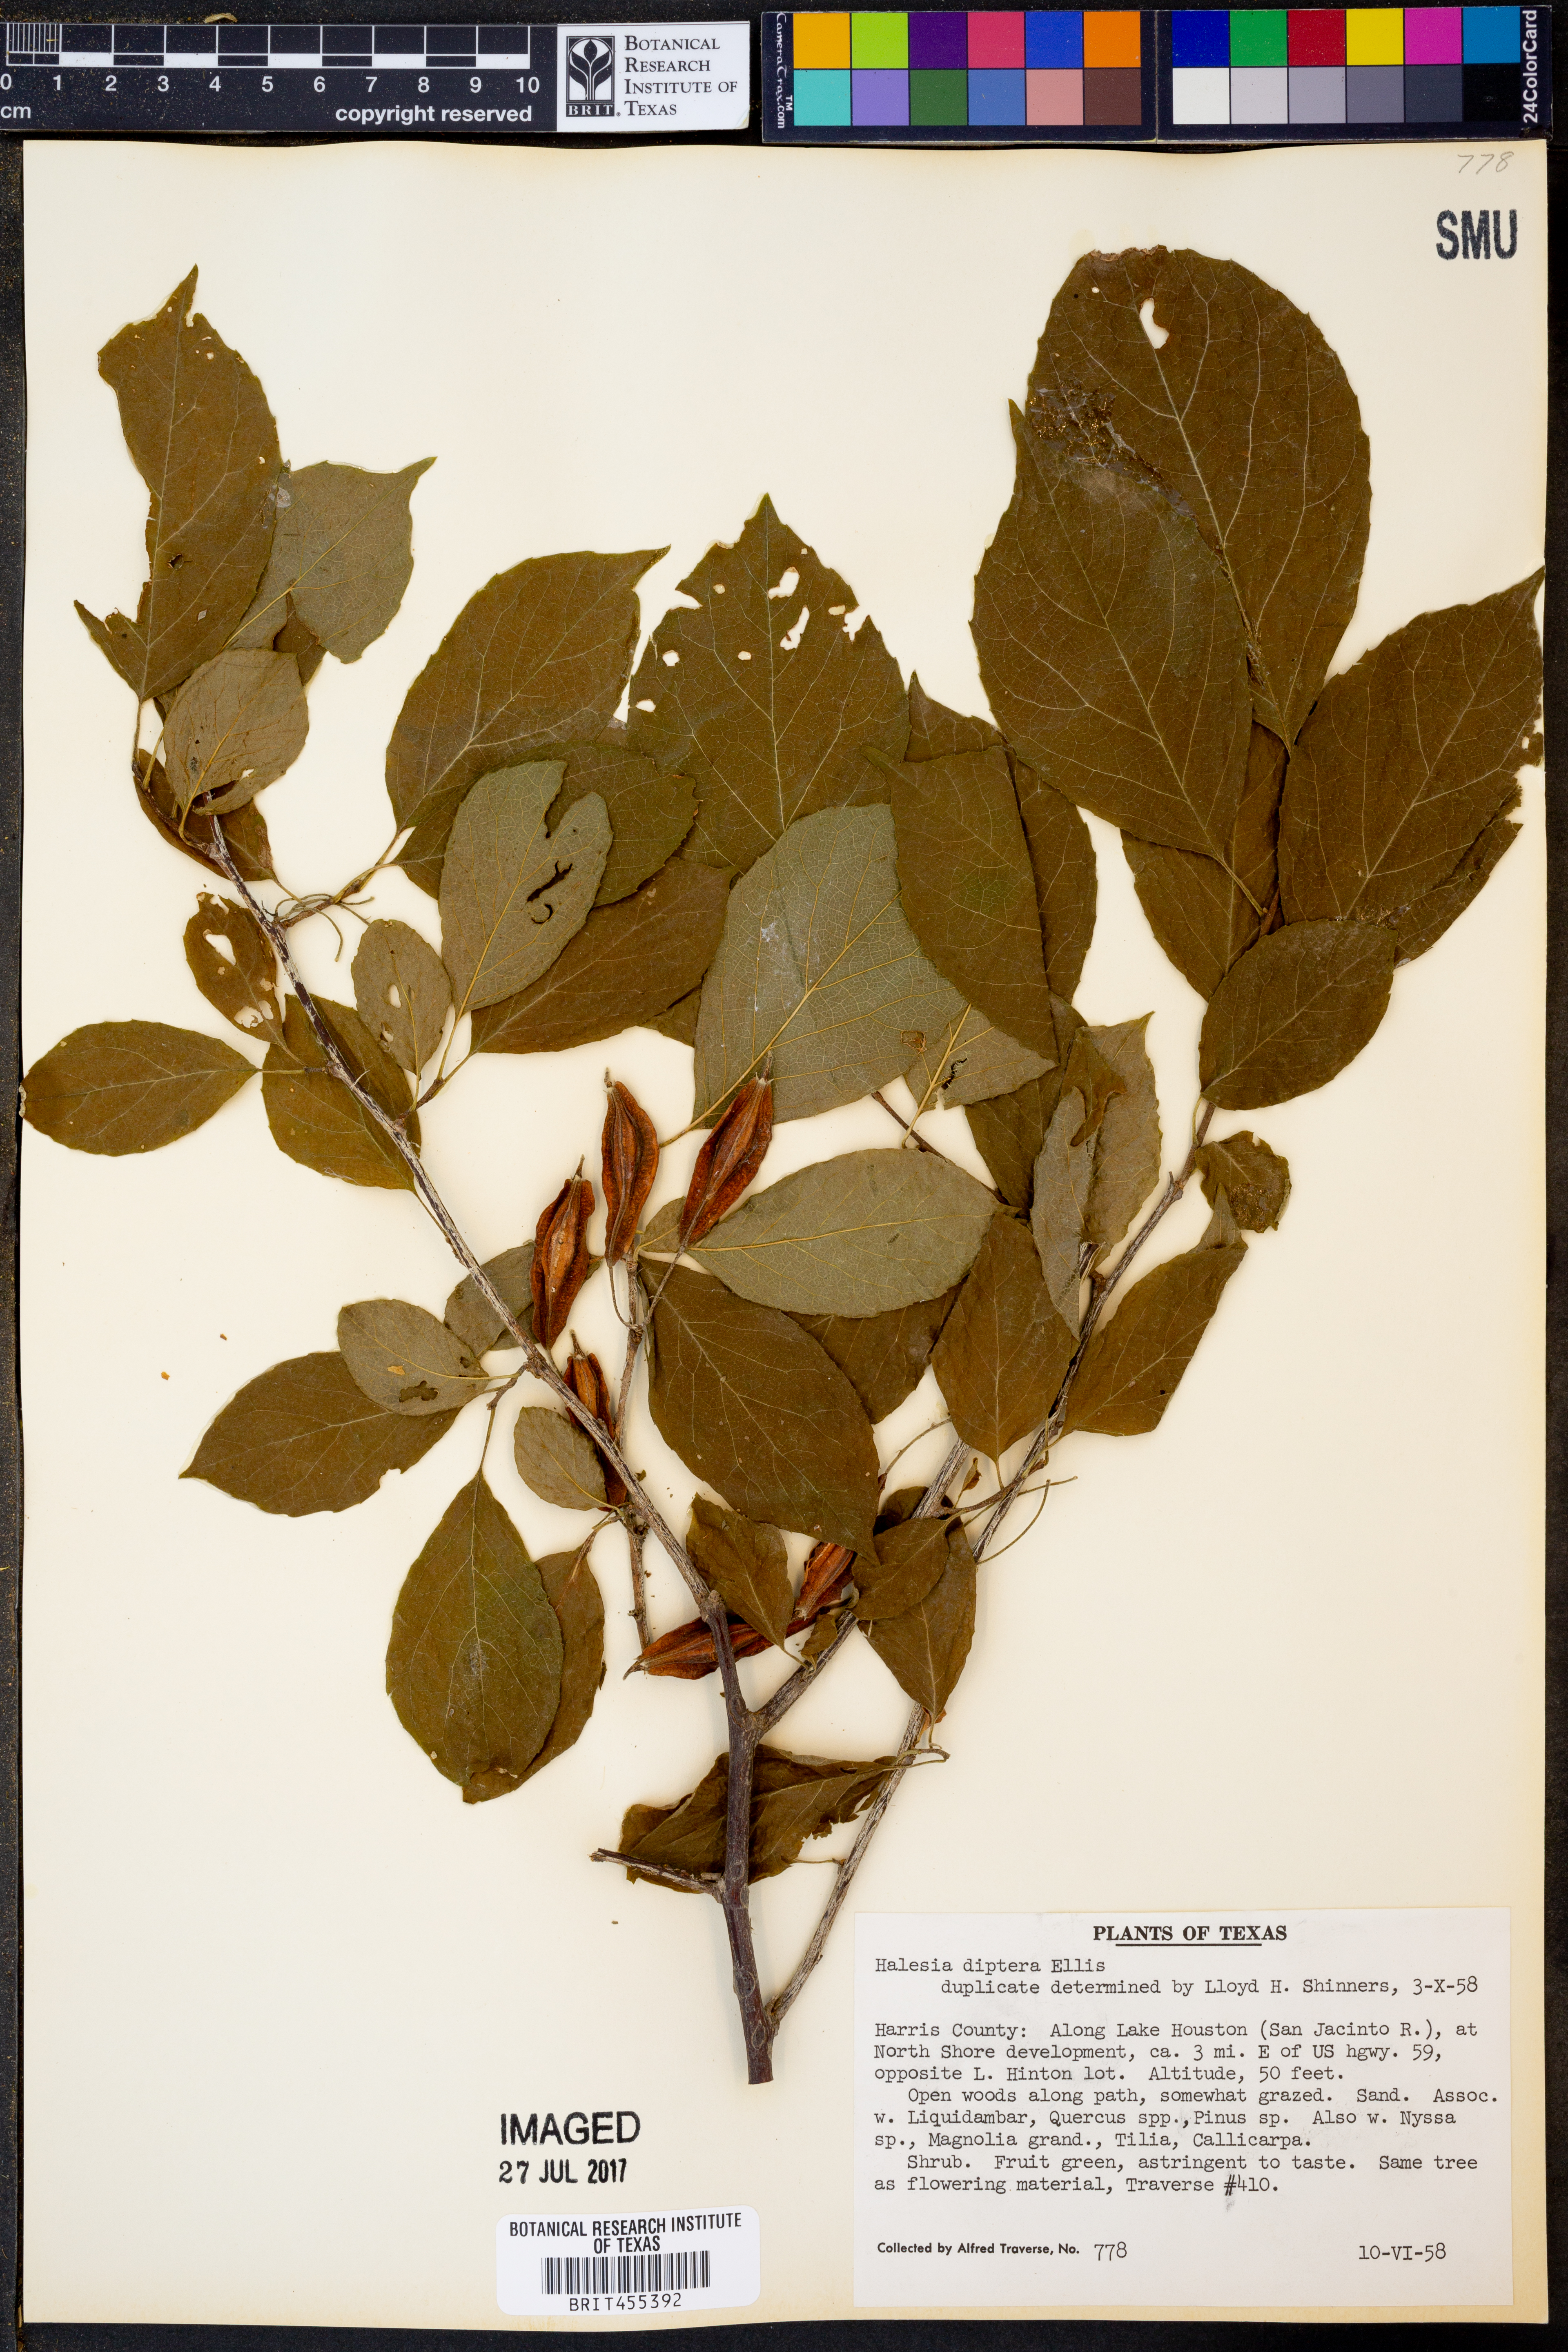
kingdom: Plantae
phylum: Tracheophyta
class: Magnoliopsida
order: Ericales
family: Styracaceae
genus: Halesia
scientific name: Halesia diptera
